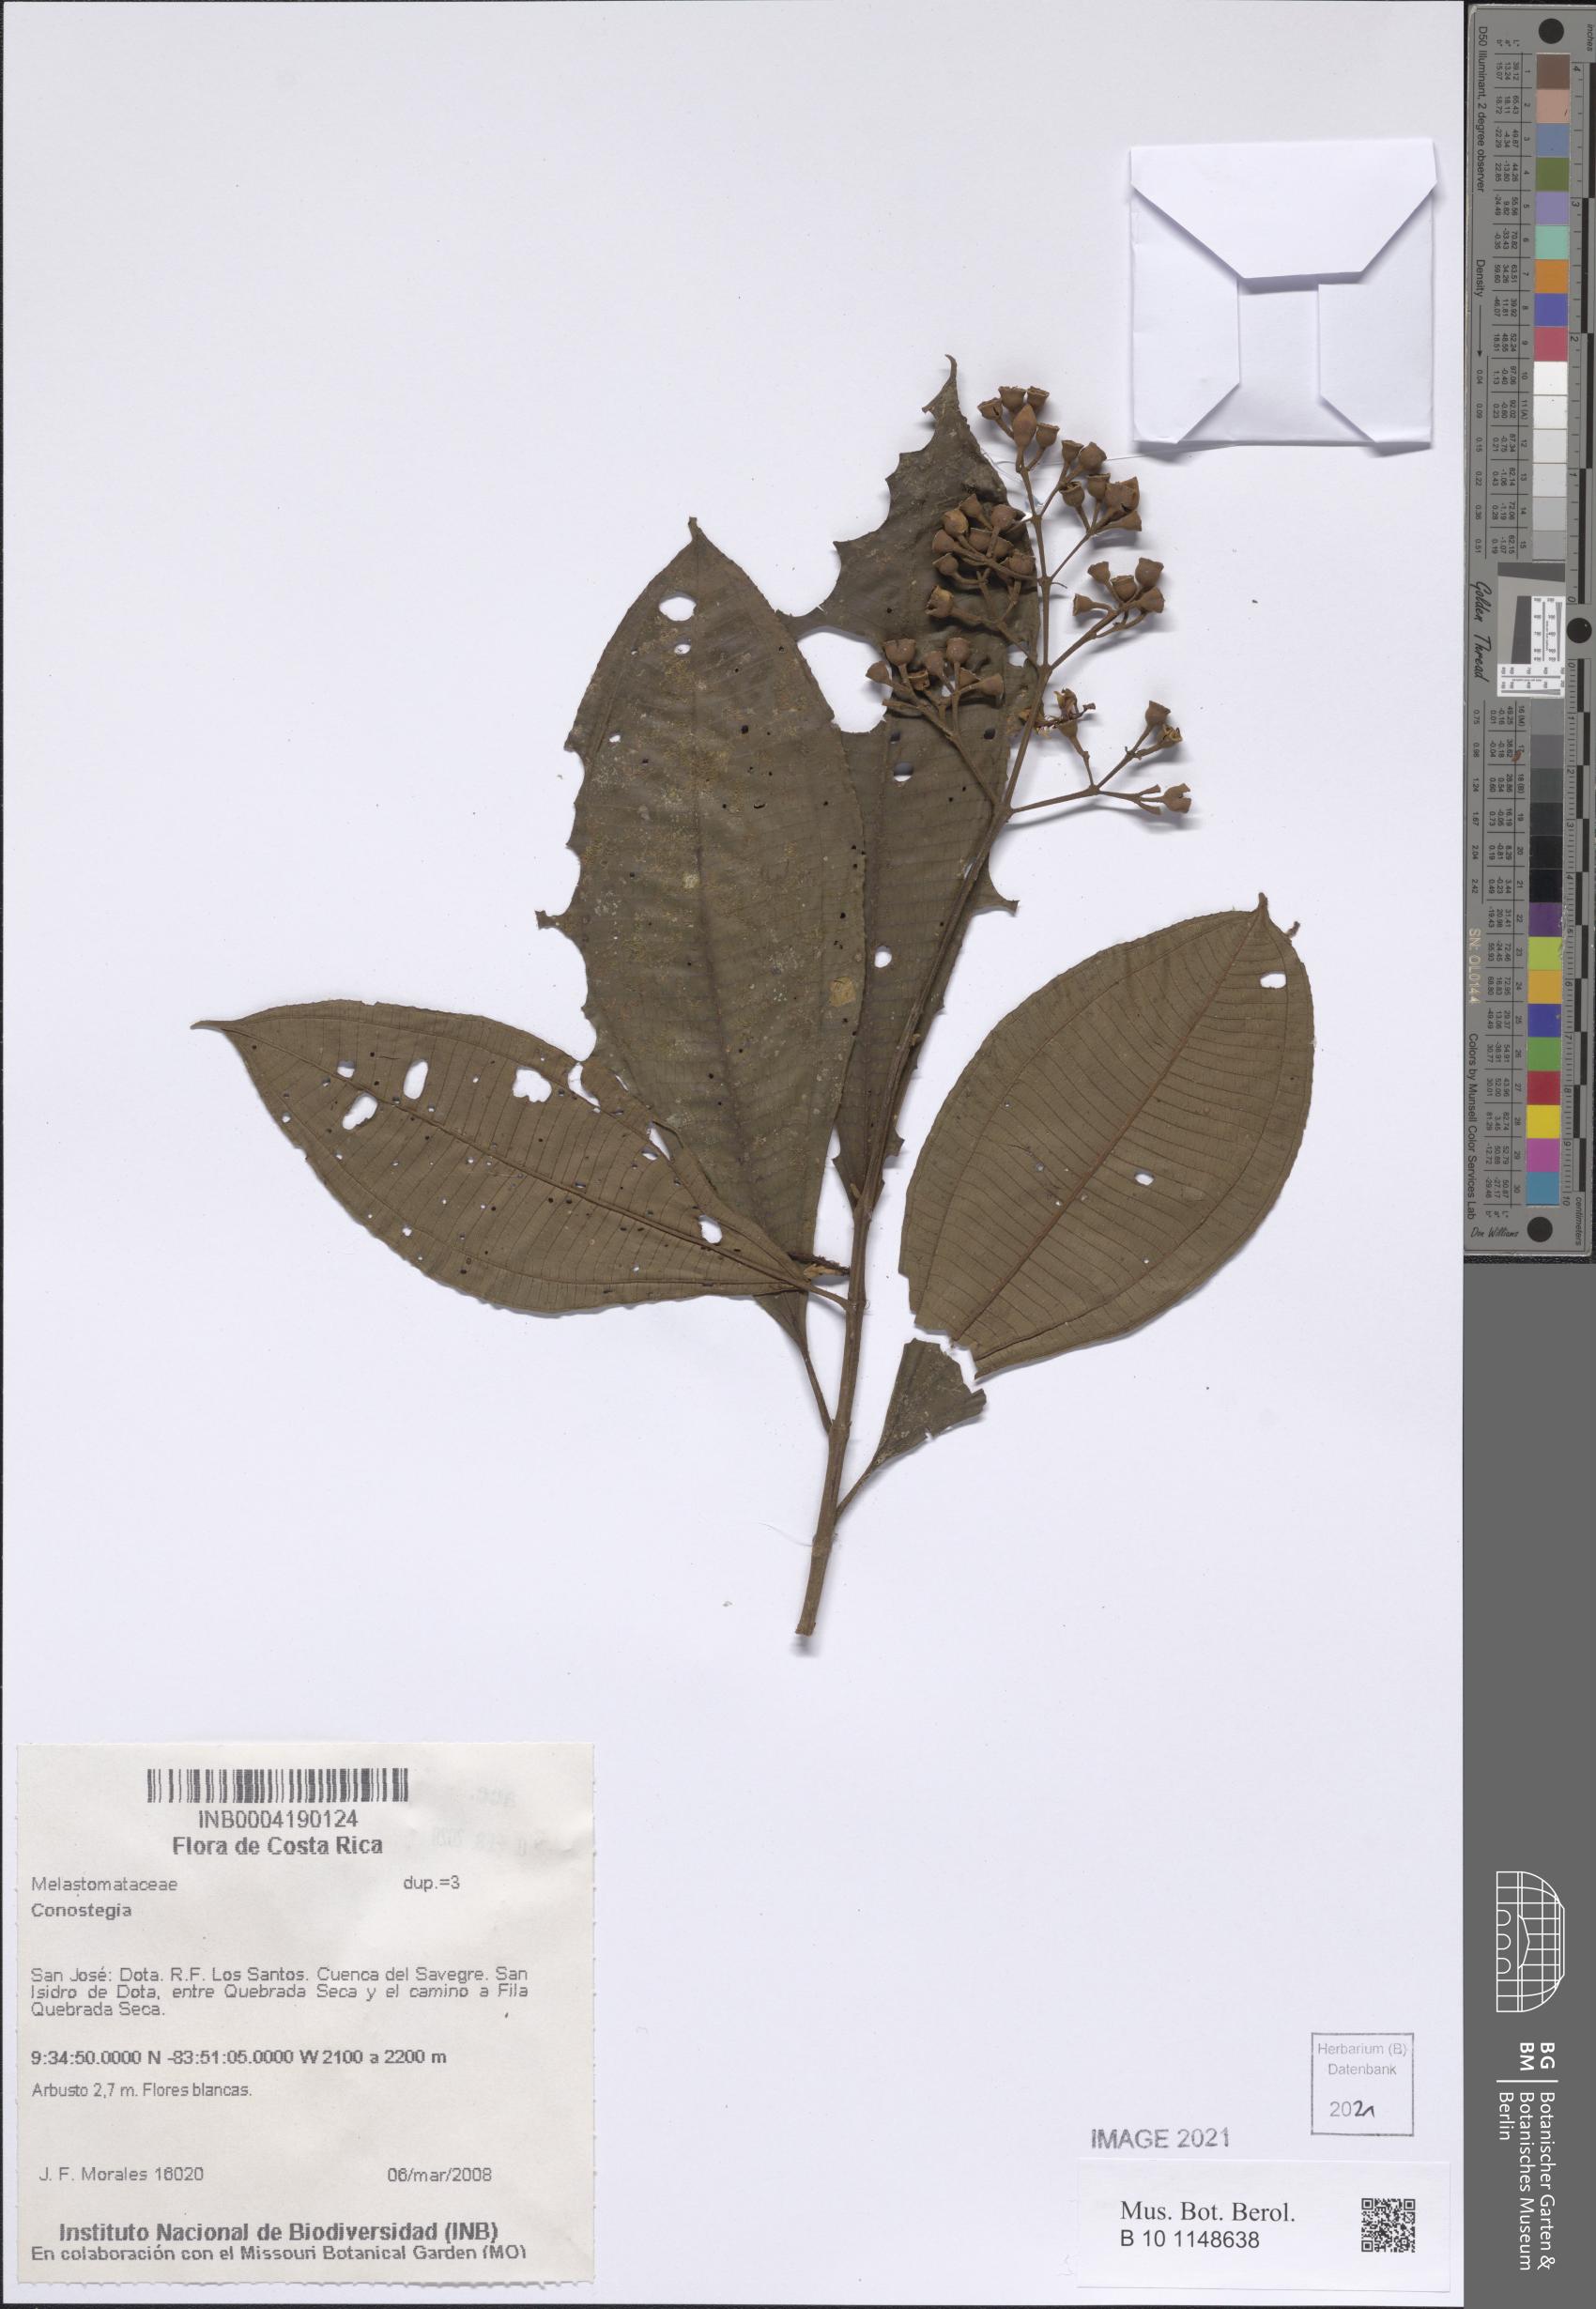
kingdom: Plantae
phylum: Tracheophyta
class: Magnoliopsida
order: Myrtales
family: Melastomataceae
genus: Miconia
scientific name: Miconia
